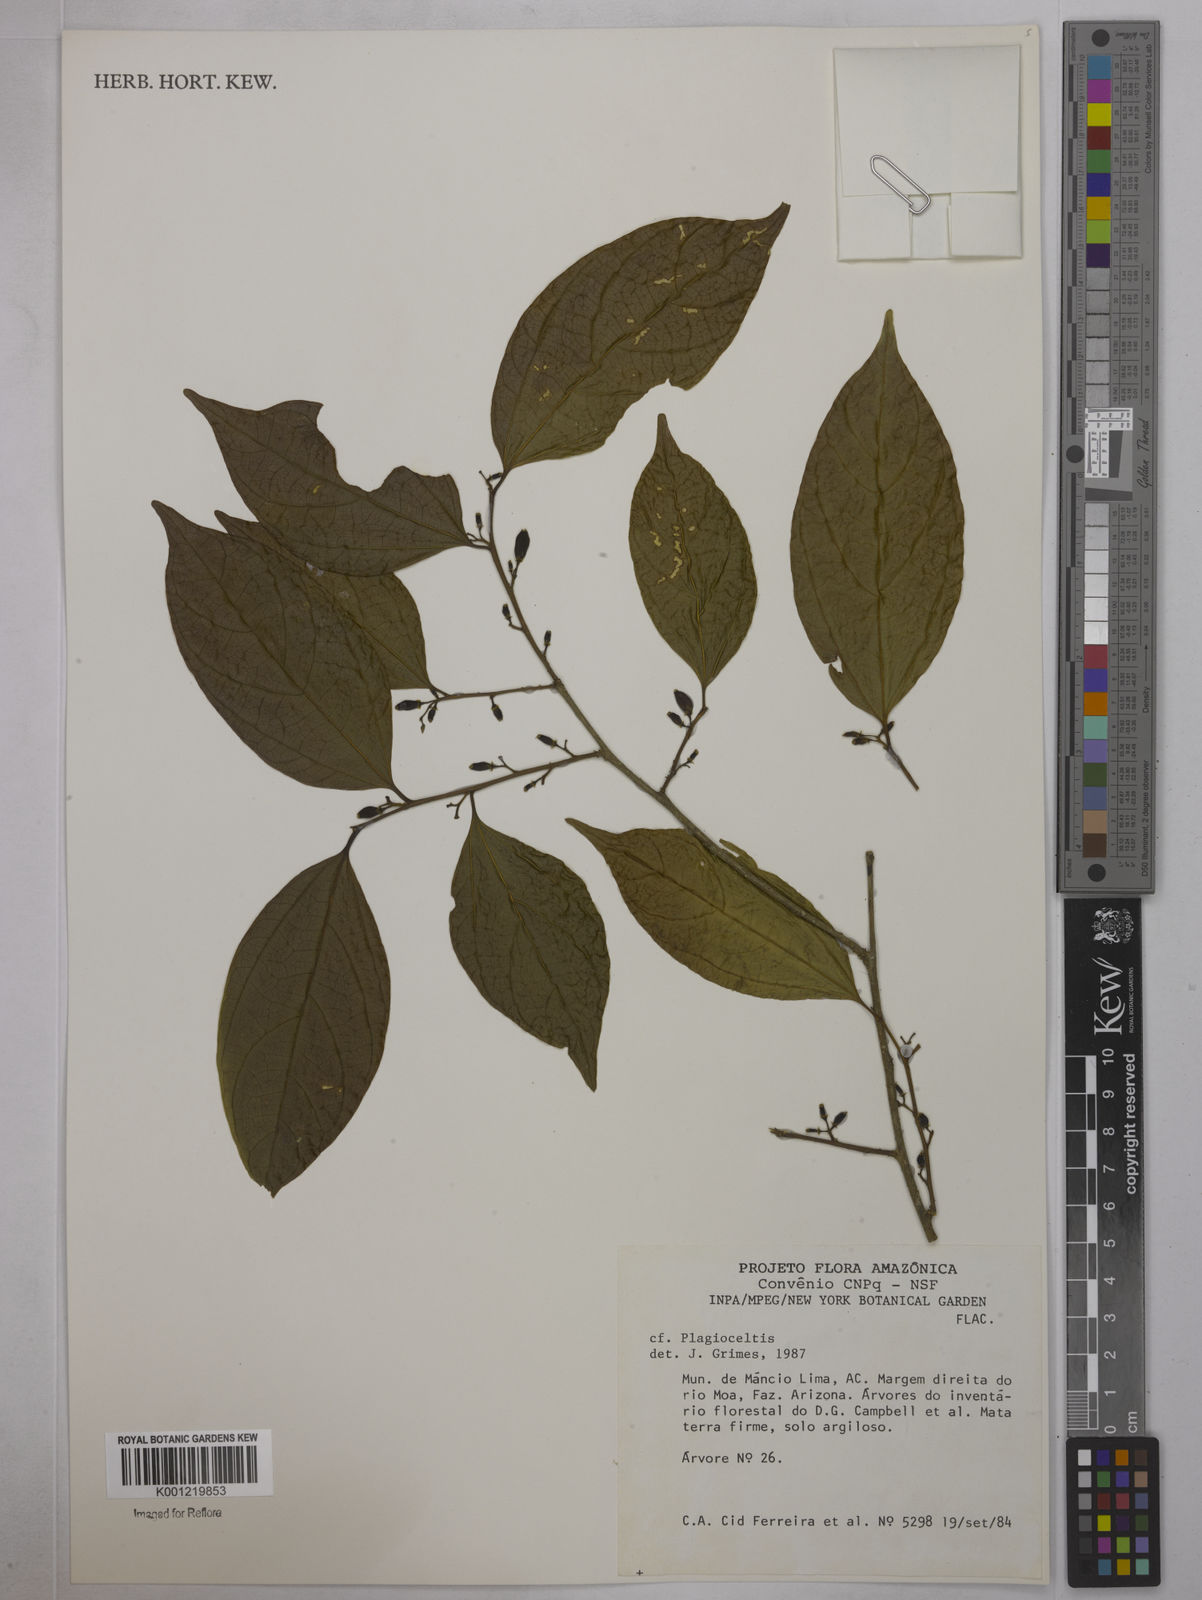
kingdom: Plantae
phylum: Tracheophyta
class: Magnoliopsida
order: Rosales
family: Cannabaceae
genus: Celtis
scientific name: Celtis
